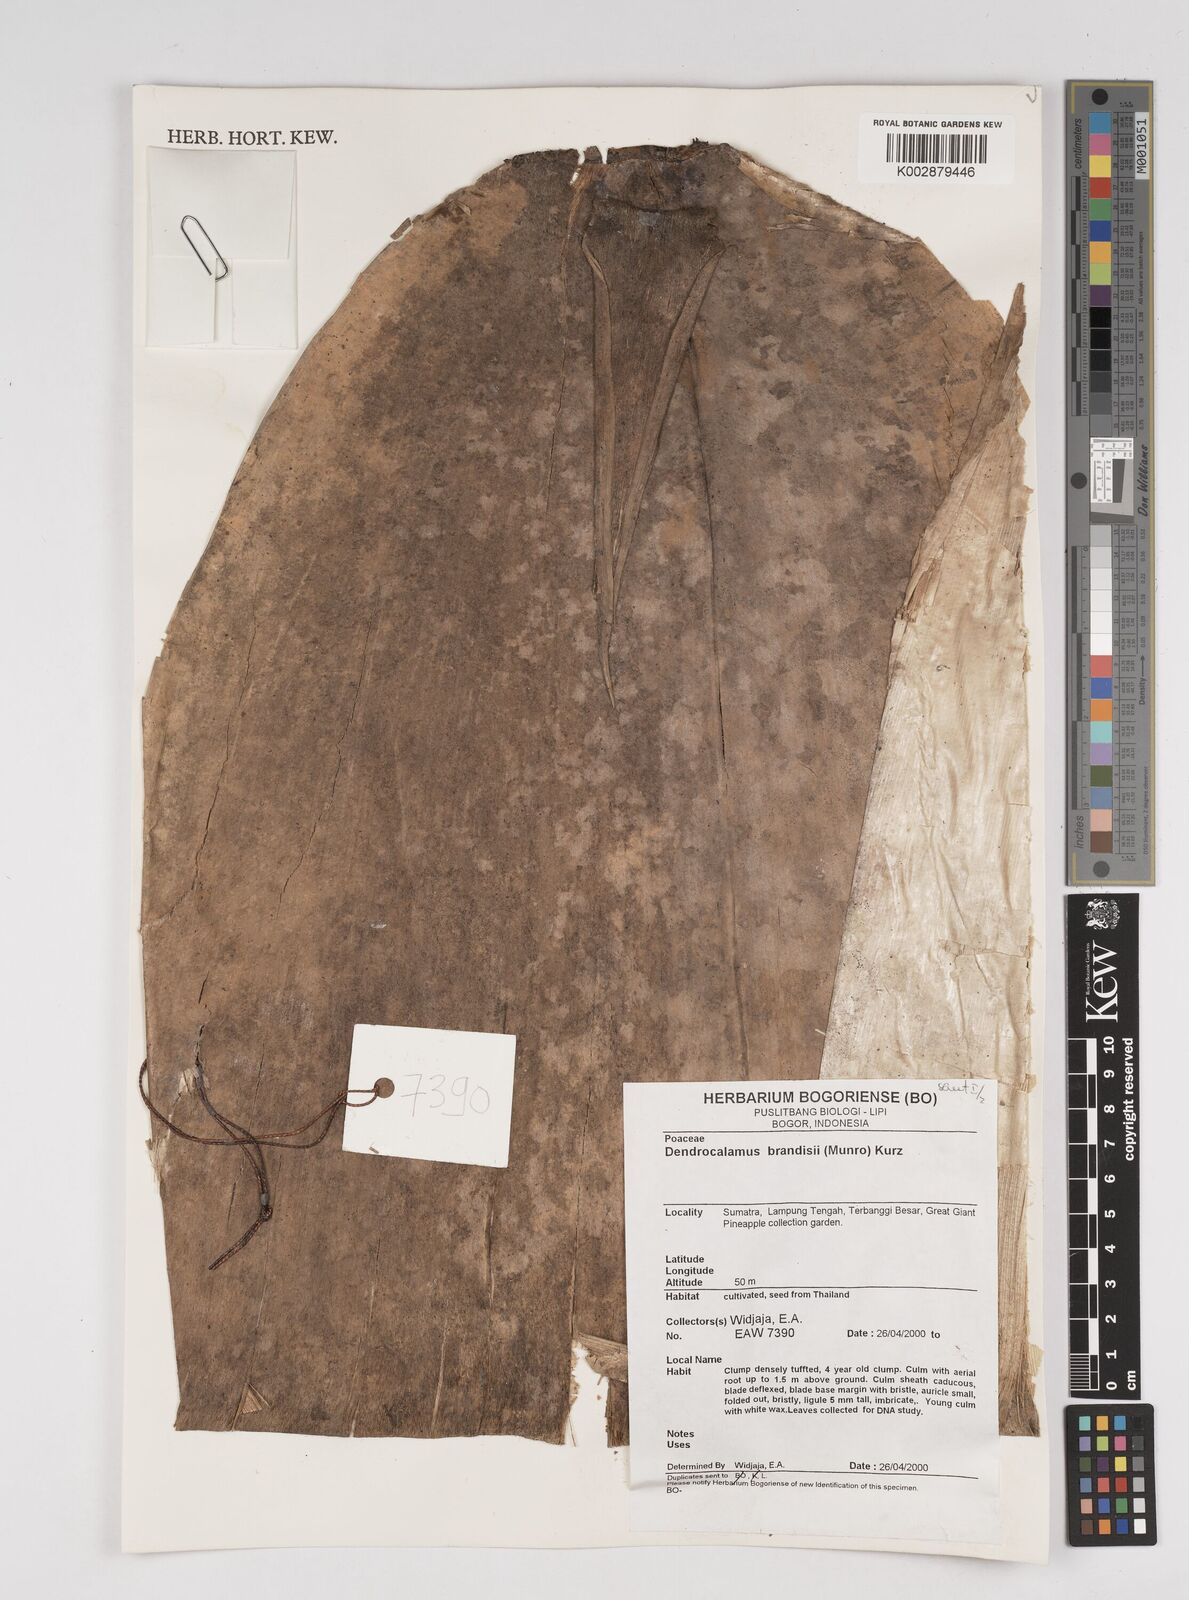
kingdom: Plantae
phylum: Tracheophyta
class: Liliopsida
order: Poales
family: Poaceae
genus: Dendrocalamus
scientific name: Dendrocalamus brandisii
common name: Velvetleaf bamboo
